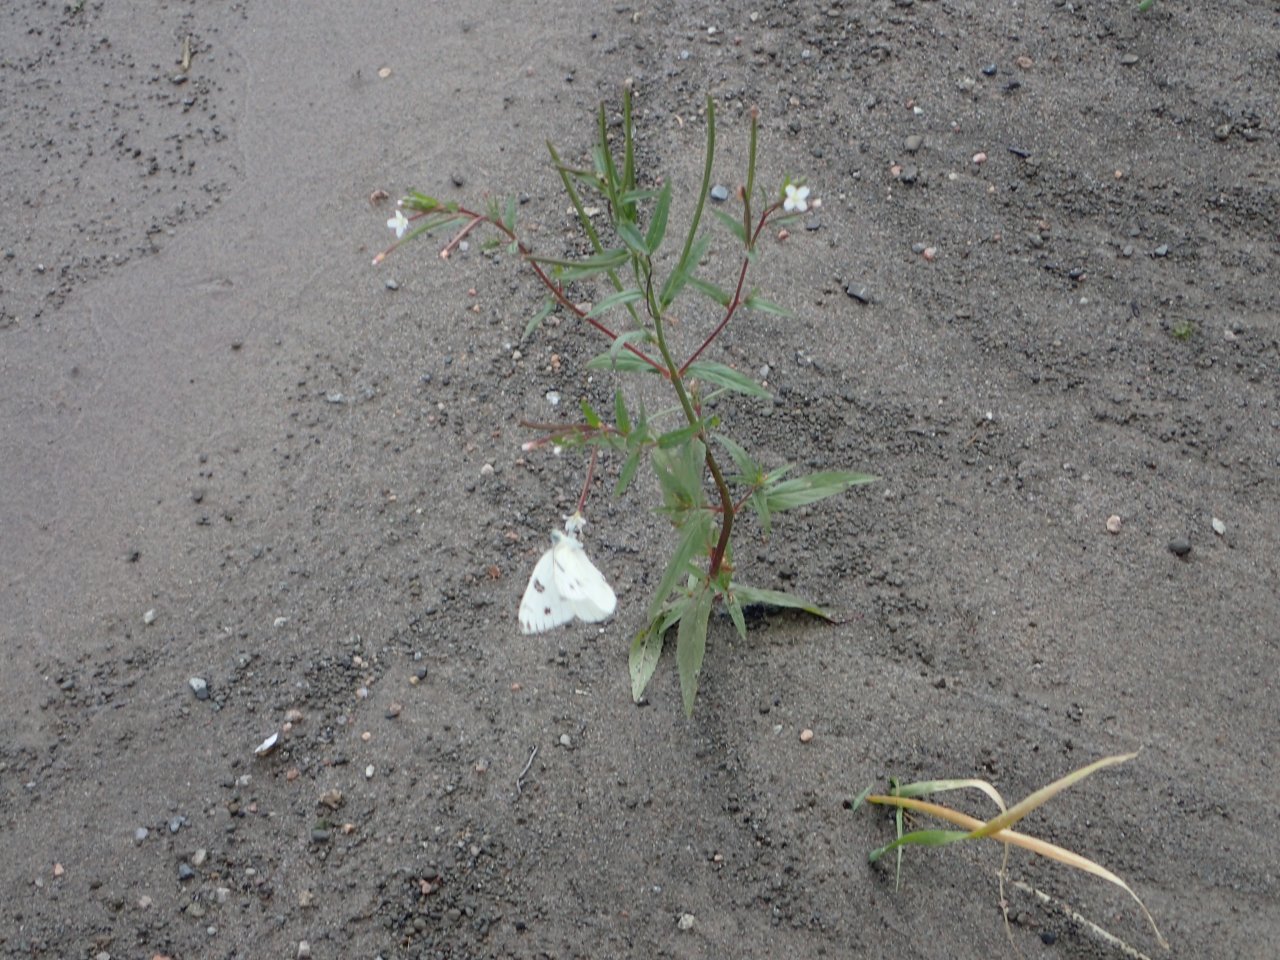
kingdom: Animalia
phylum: Arthropoda
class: Insecta
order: Lepidoptera
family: Pieridae
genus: Pontia
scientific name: Pontia protodice
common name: Checkered White
